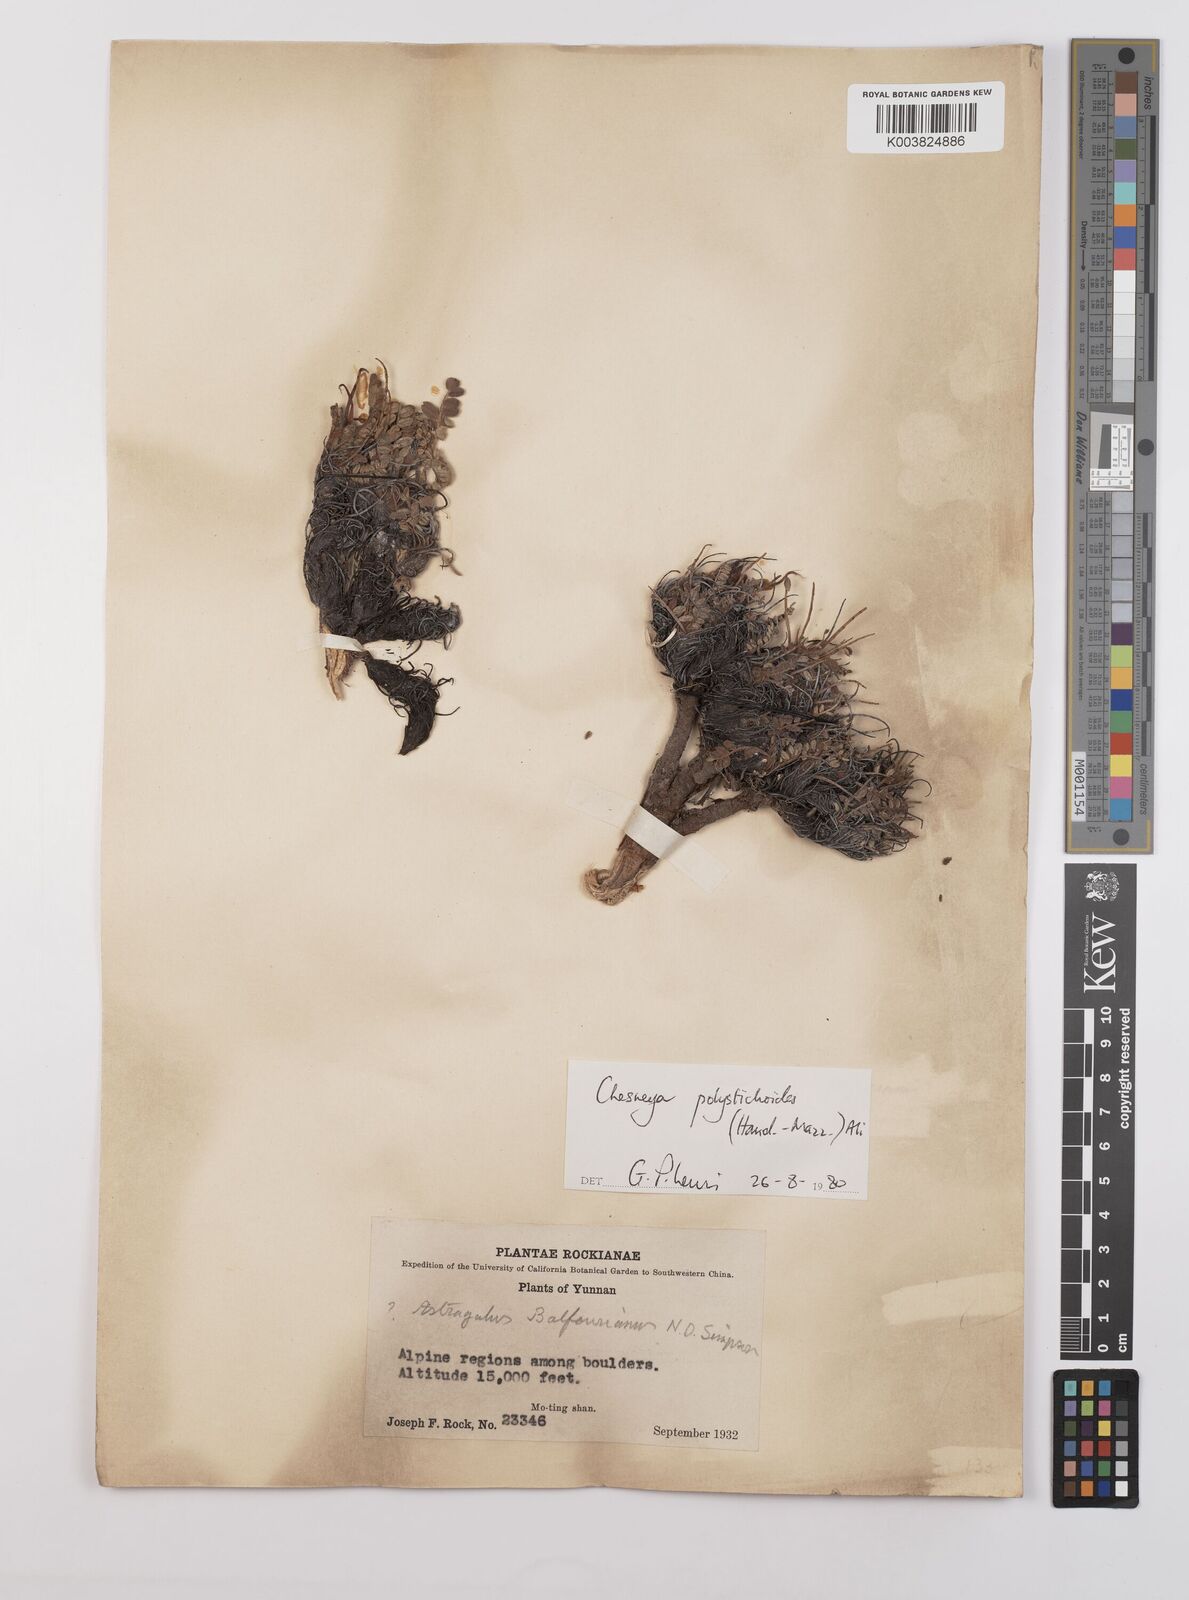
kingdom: Plantae
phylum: Tracheophyta
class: Magnoliopsida
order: Fabales
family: Fabaceae
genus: Chesneya
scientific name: Chesneya polystichoides
